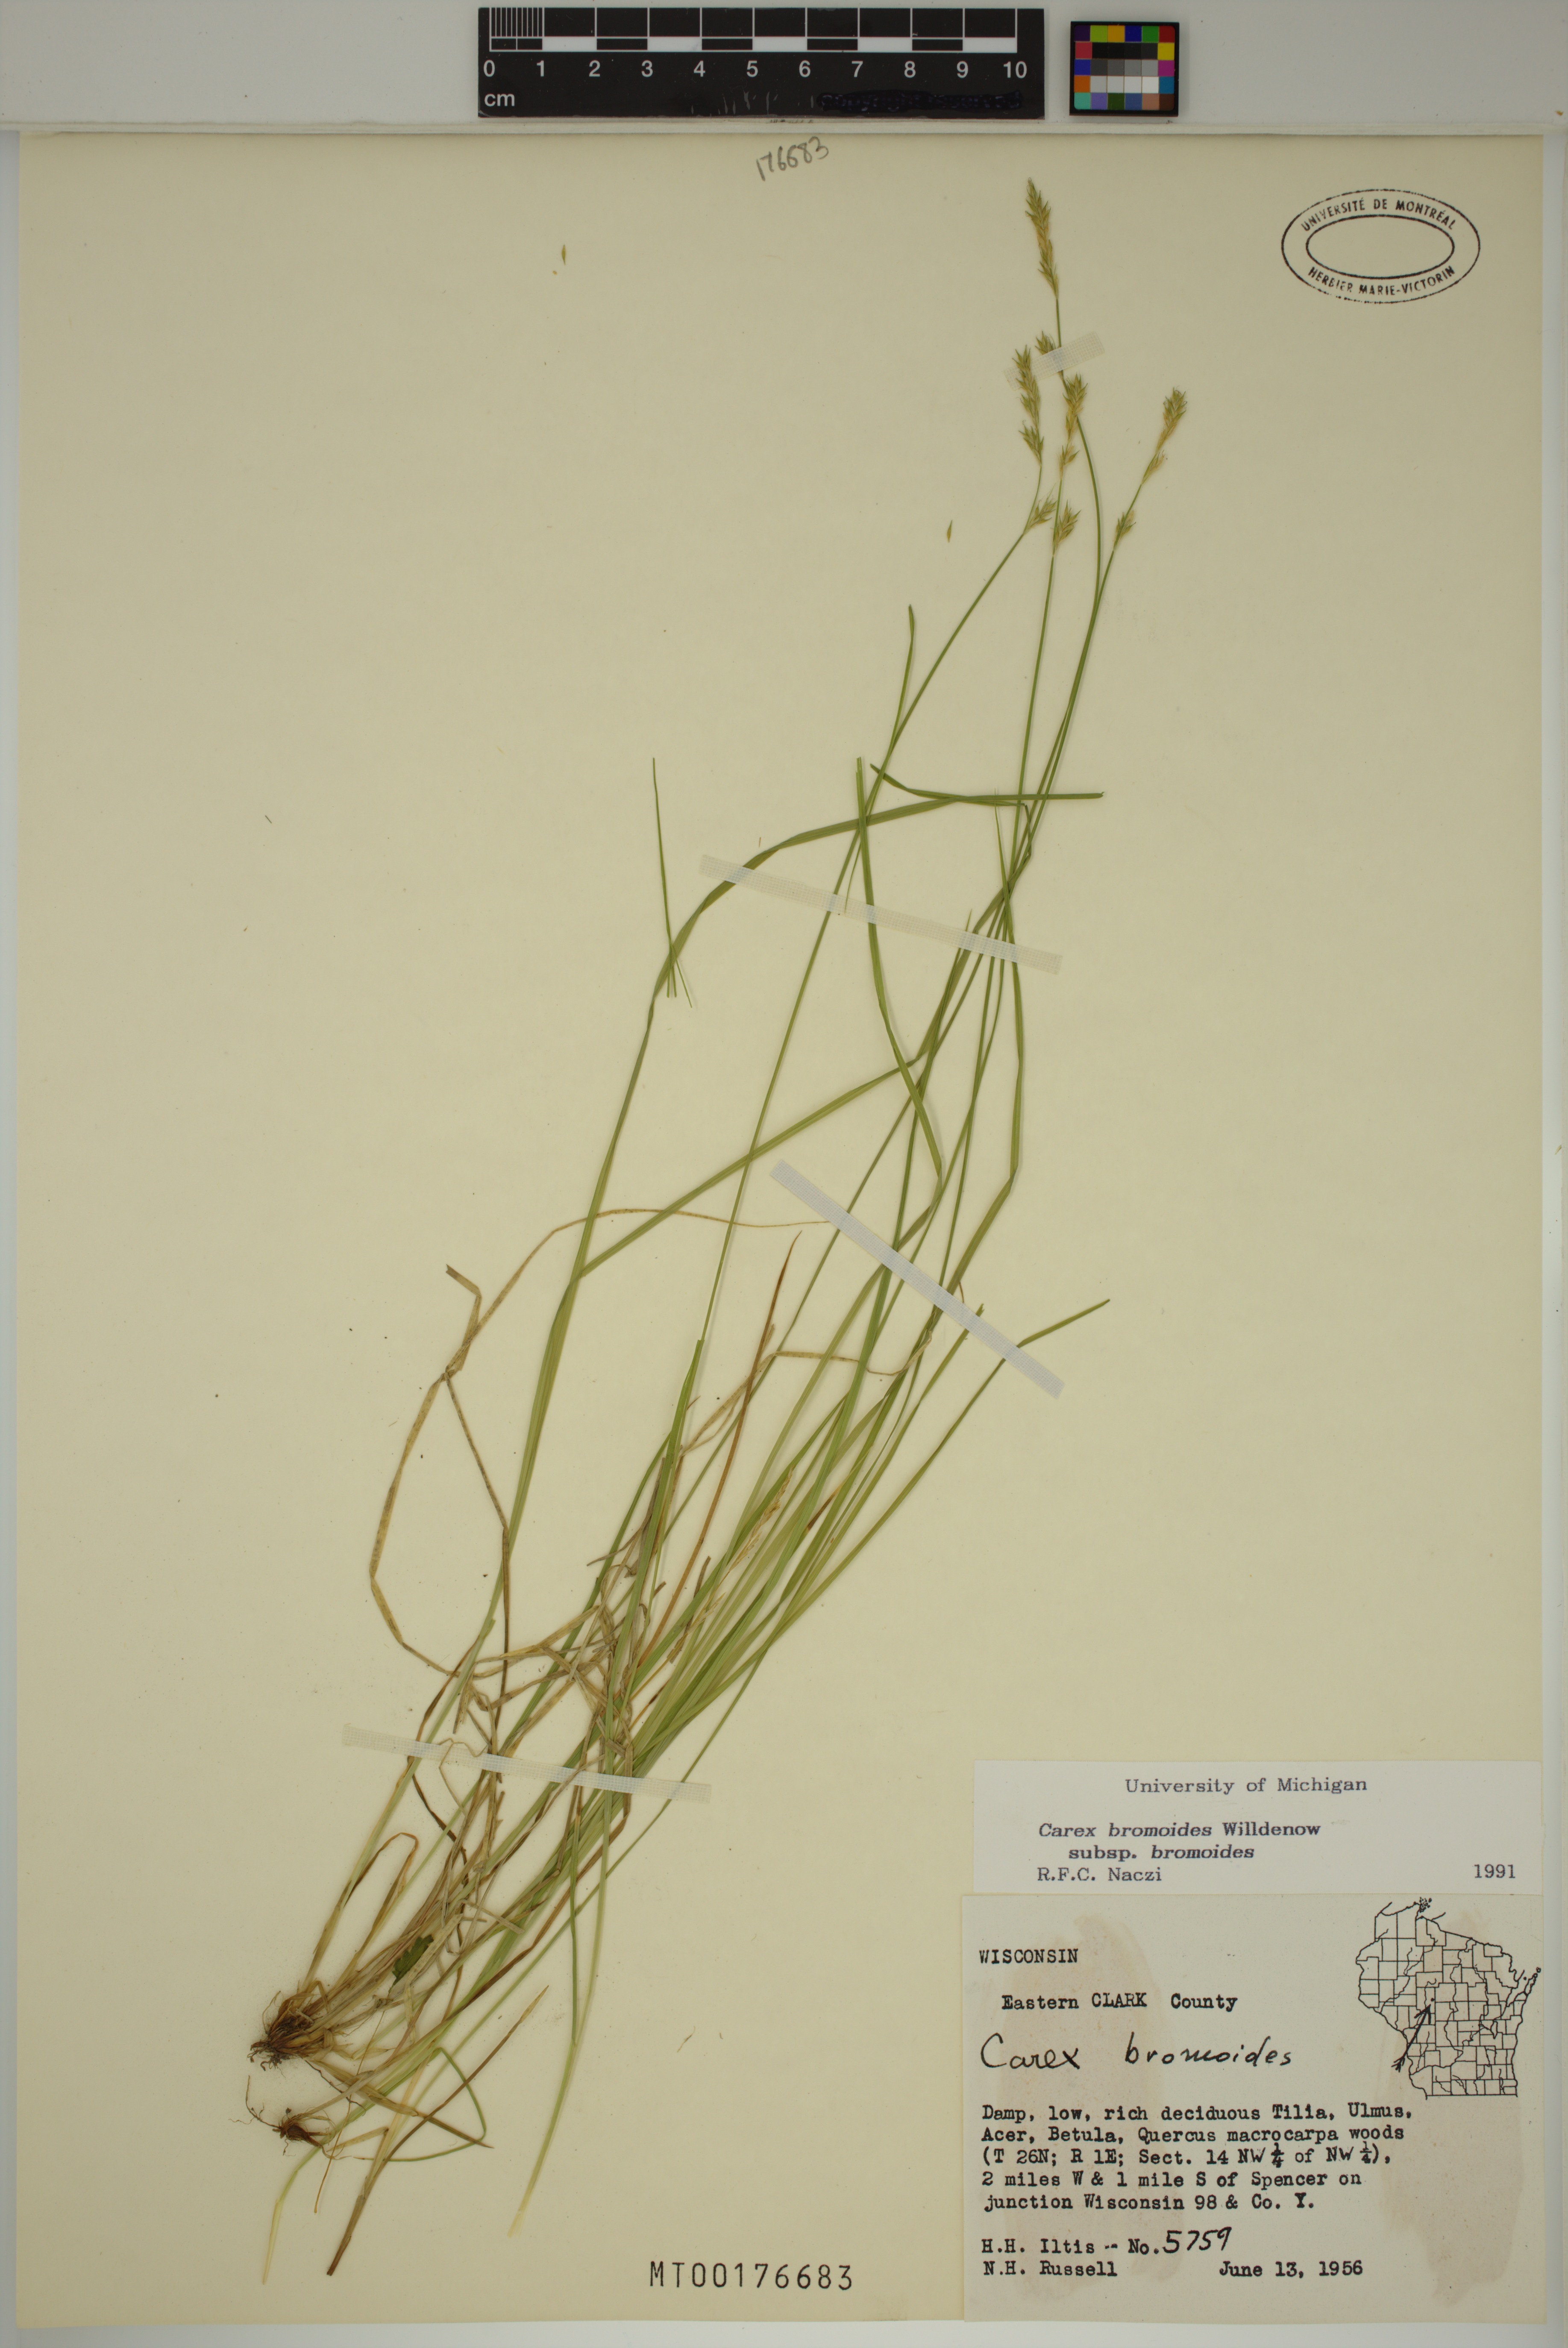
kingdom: Plantae
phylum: Tracheophyta
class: Liliopsida
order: Poales
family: Cyperaceae
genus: Carex
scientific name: Carex bromoides
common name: Brome hummock sedge
